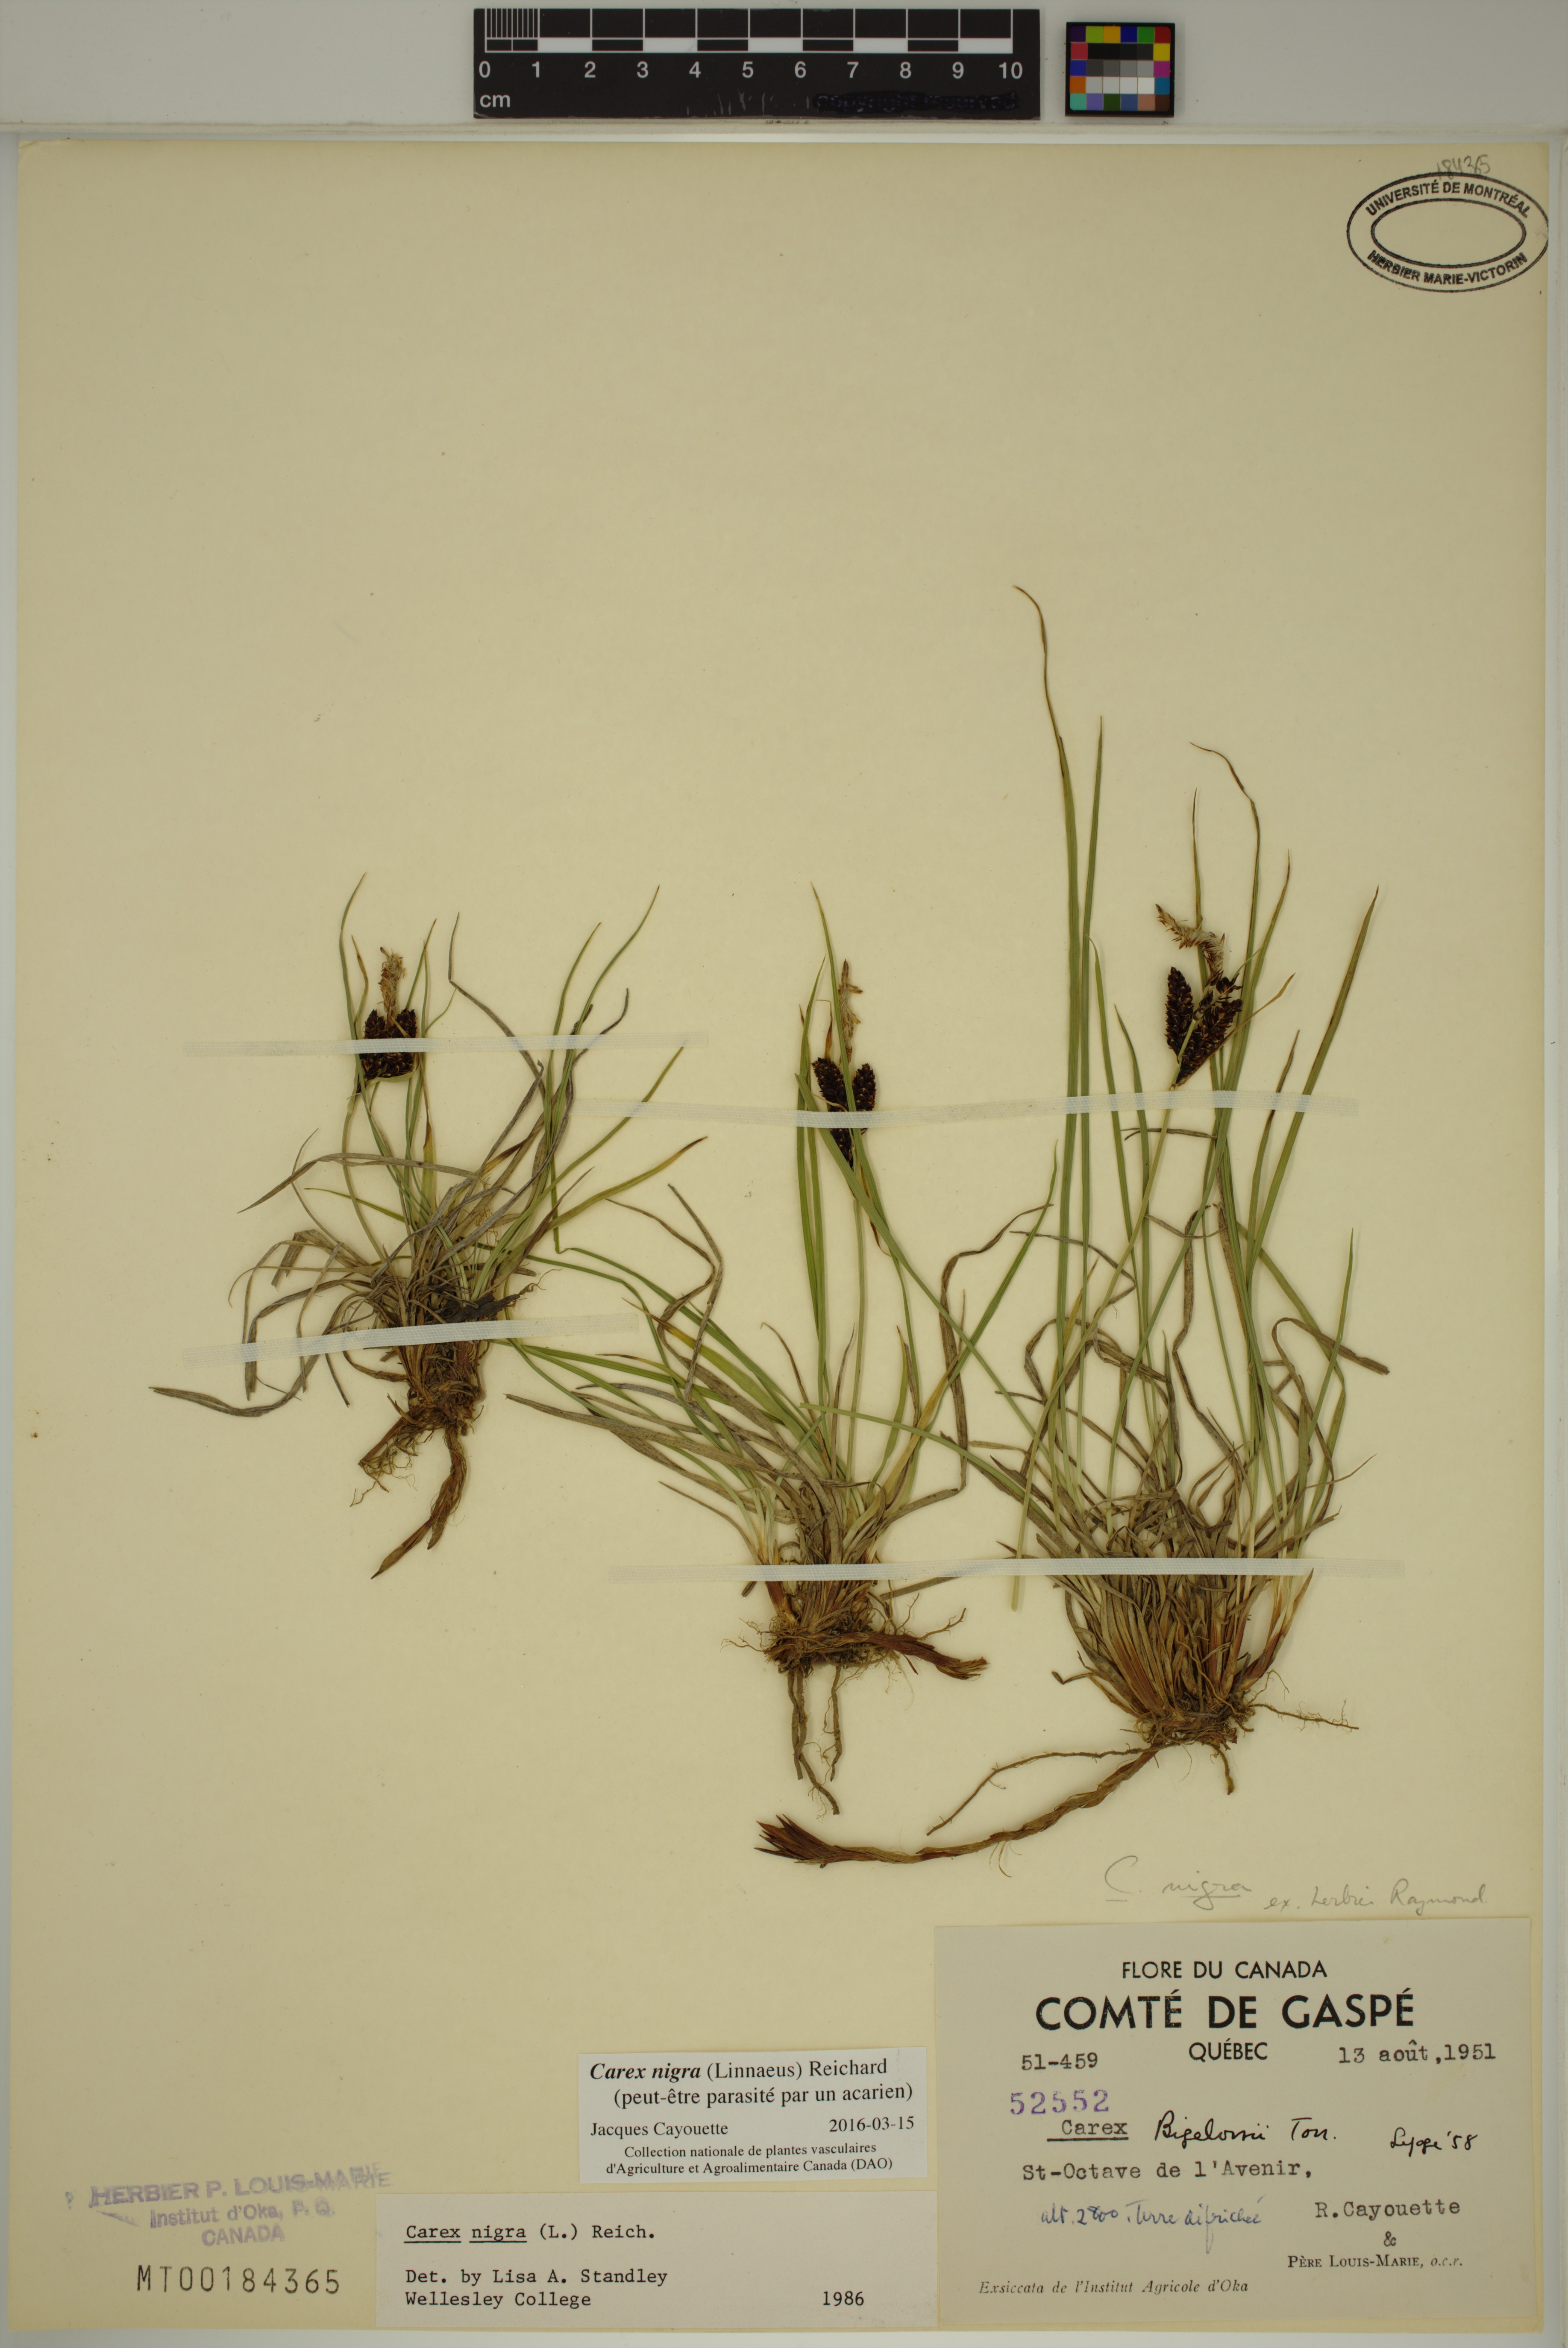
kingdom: Plantae
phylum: Tracheophyta
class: Liliopsida
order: Poales
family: Cyperaceae
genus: Carex
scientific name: Carex nigra
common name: Common sedge
